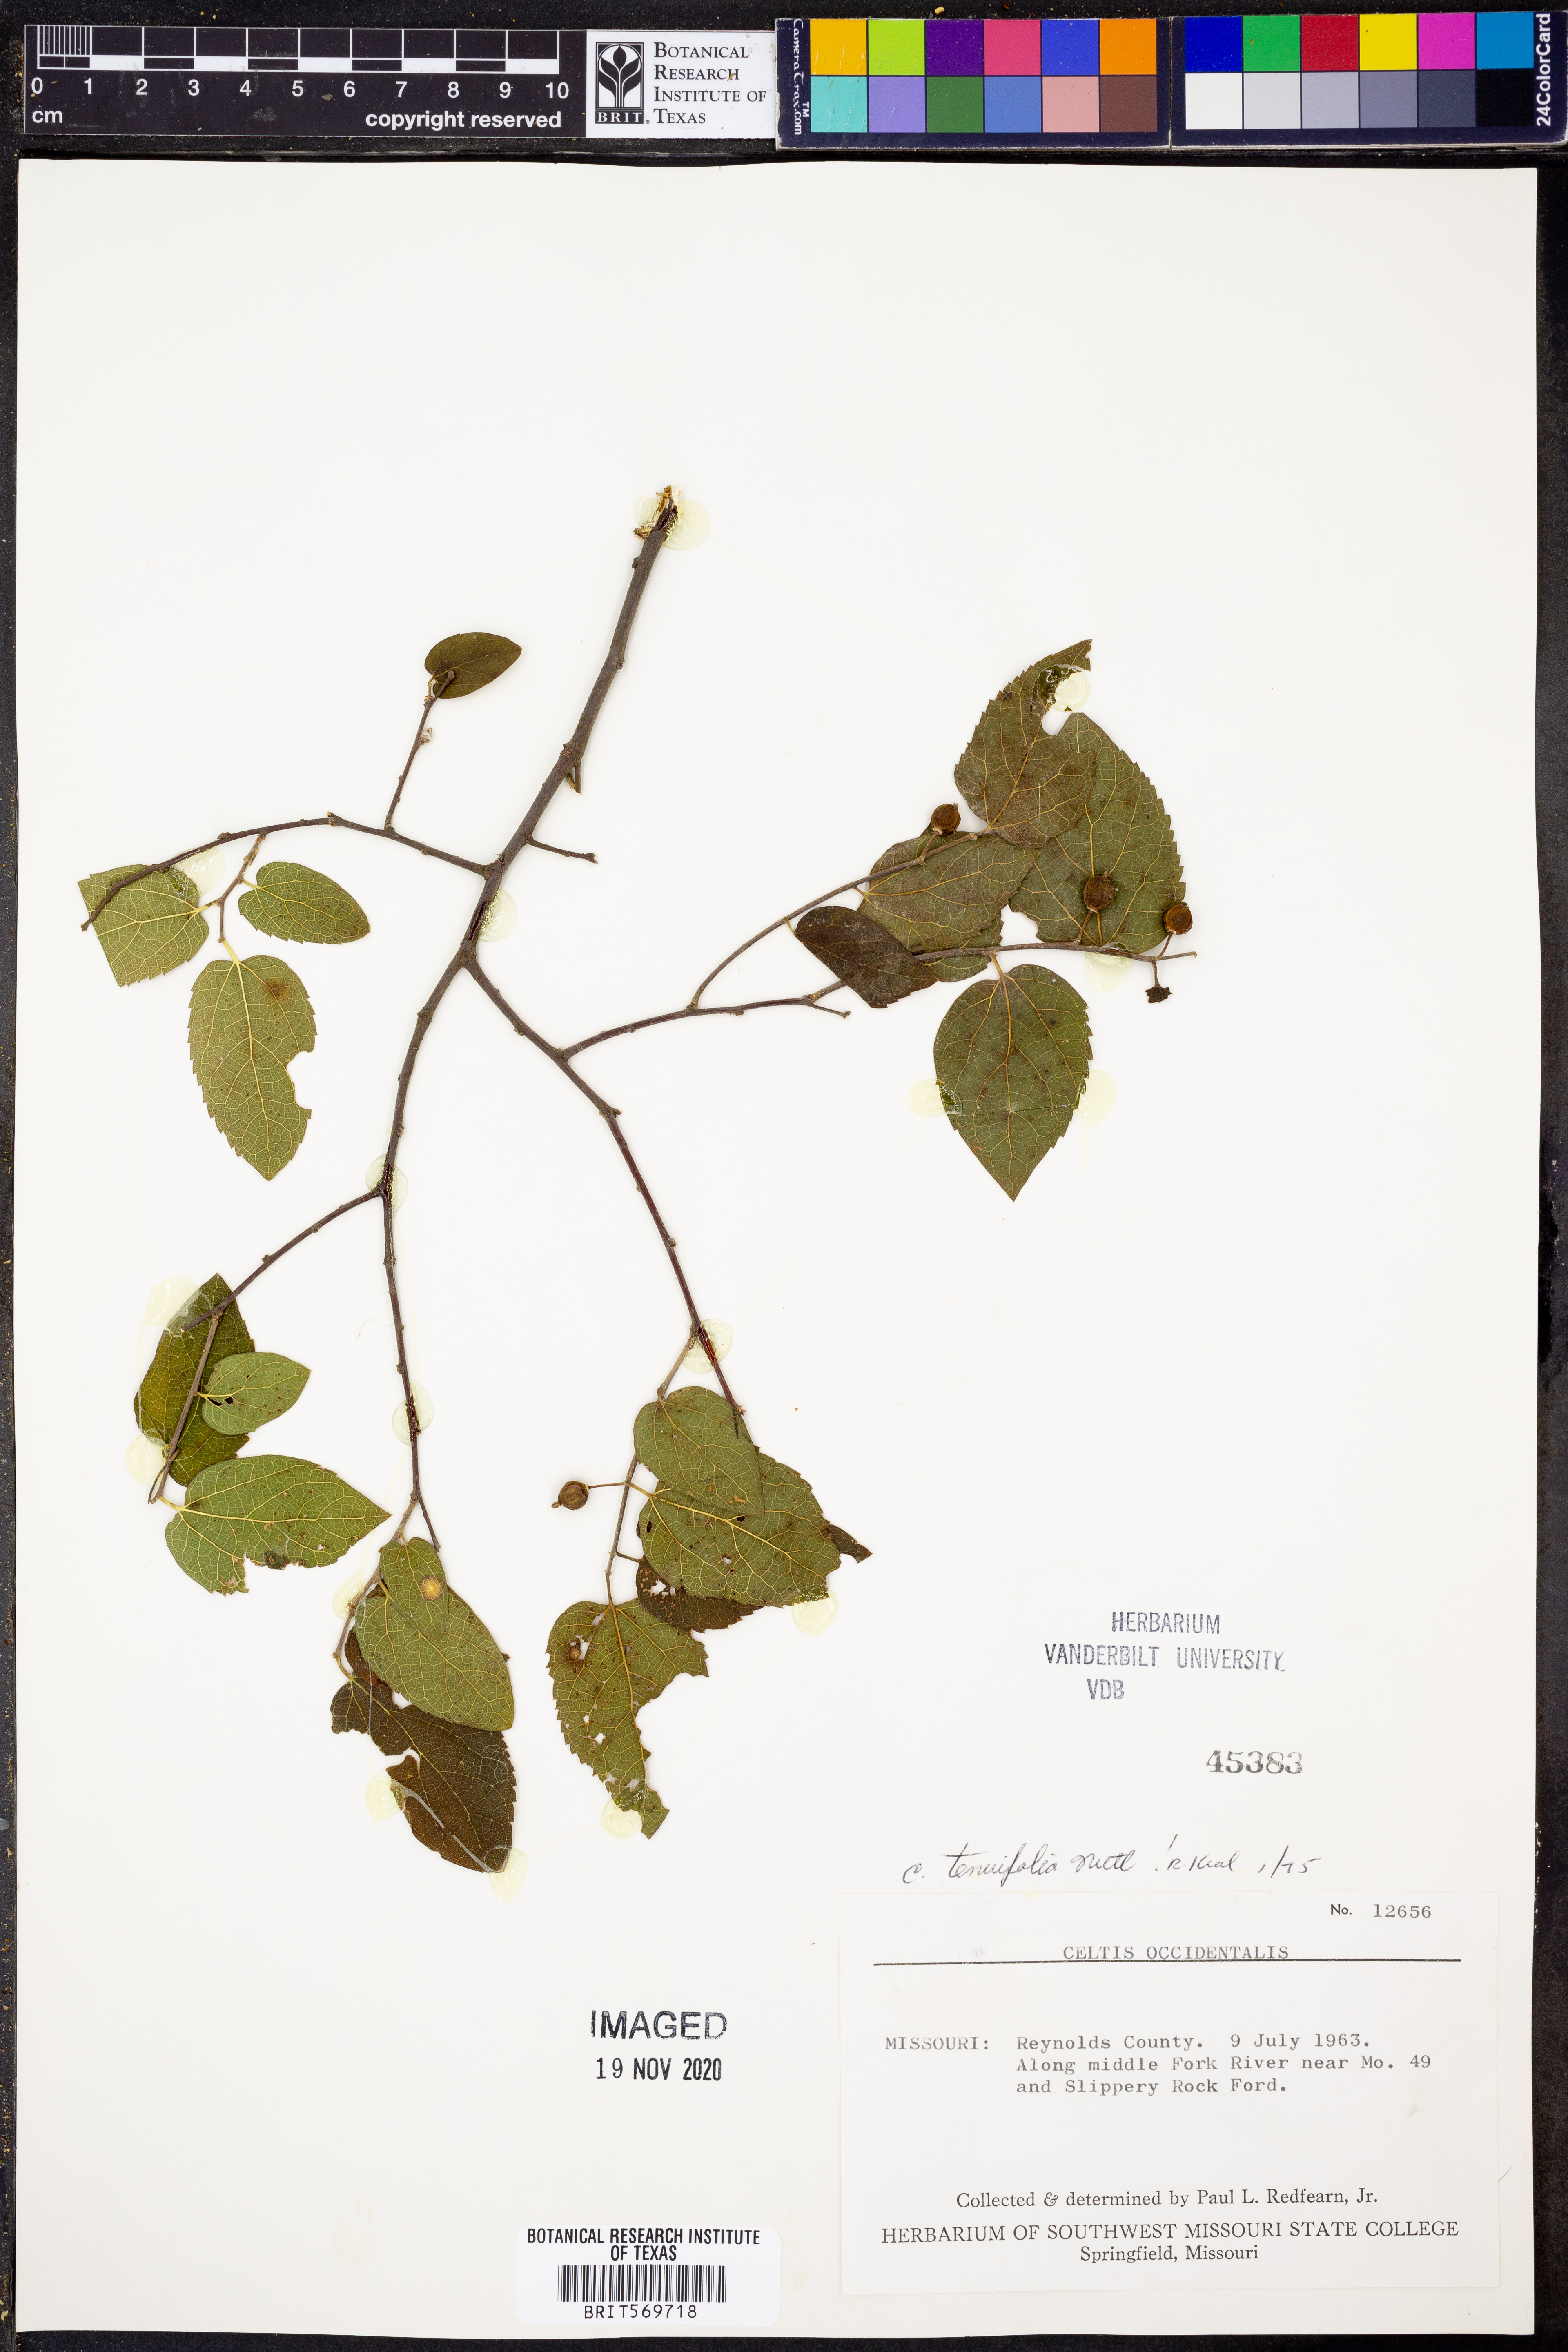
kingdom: Plantae
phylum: Tracheophyta
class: Magnoliopsida
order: Rosales
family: Cannabaceae
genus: Celtis
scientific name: Celtis tenuifolia
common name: Georgia hackberry
